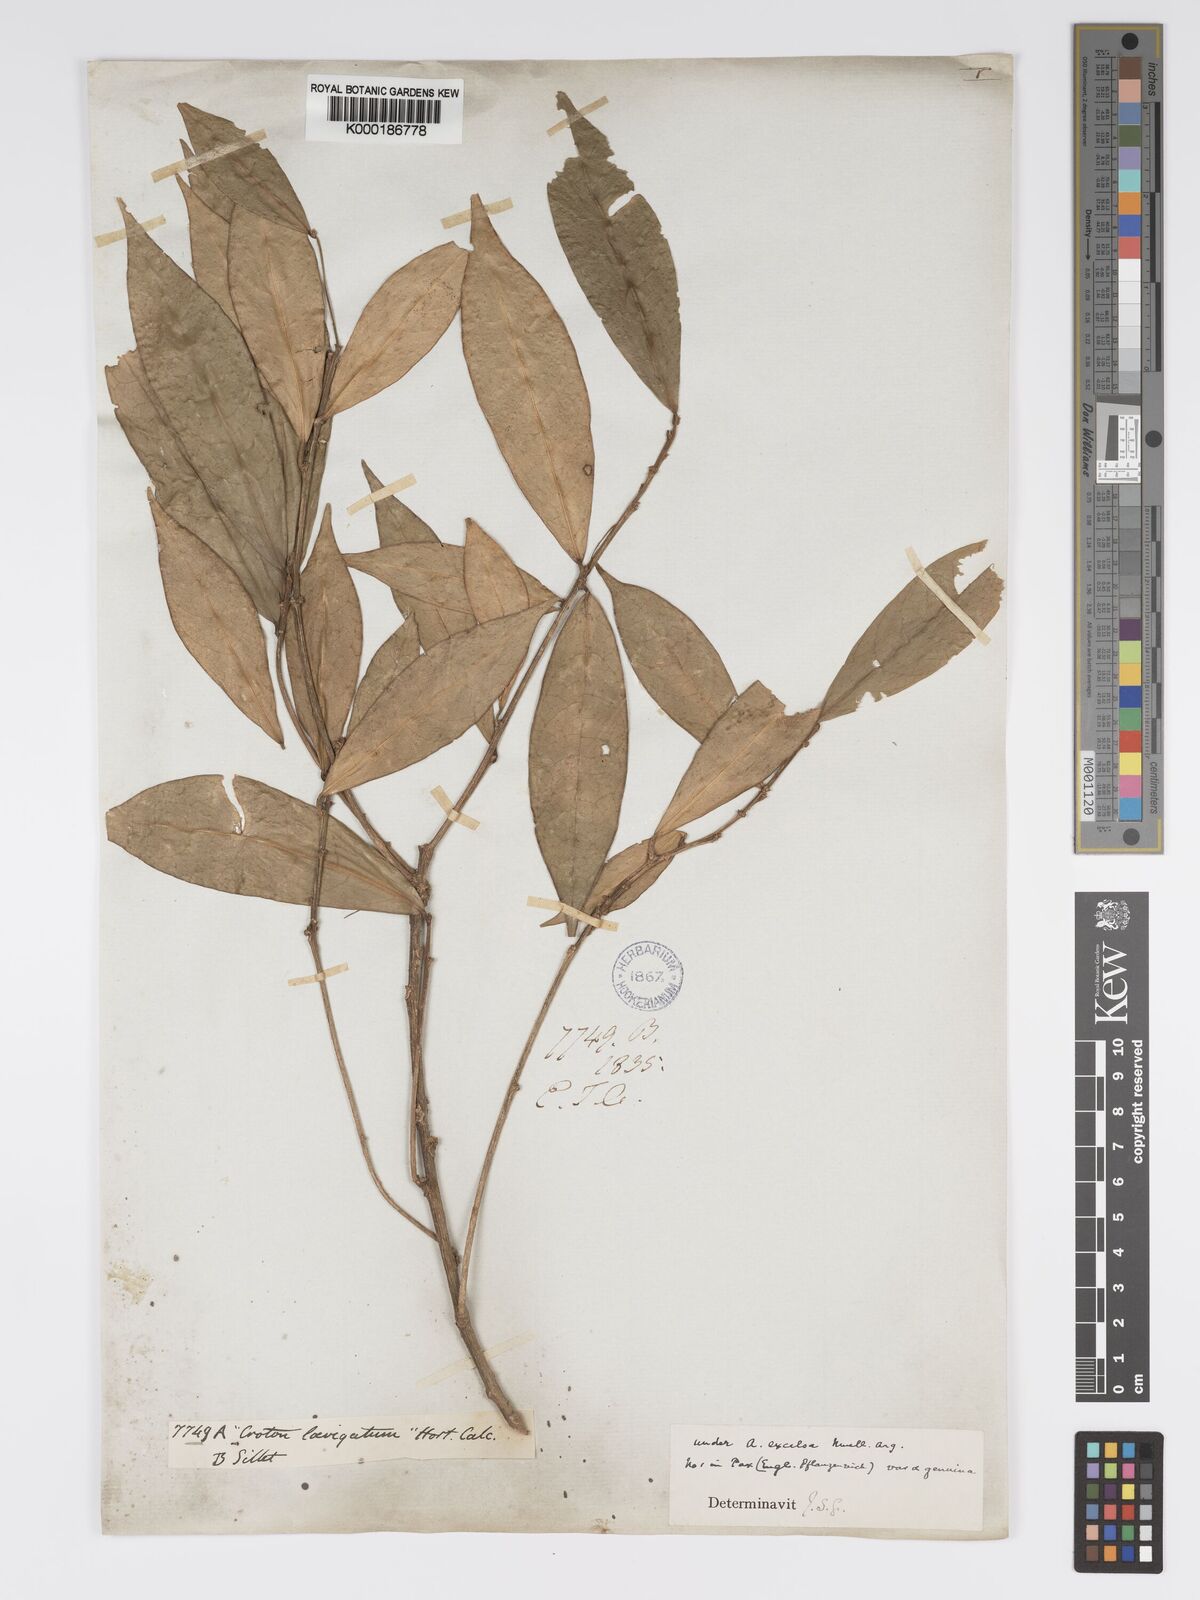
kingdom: Plantae
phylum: Tracheophyta
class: Magnoliopsida
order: Malpighiales
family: Phyllanthaceae
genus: Actephila
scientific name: Actephila excelsa
